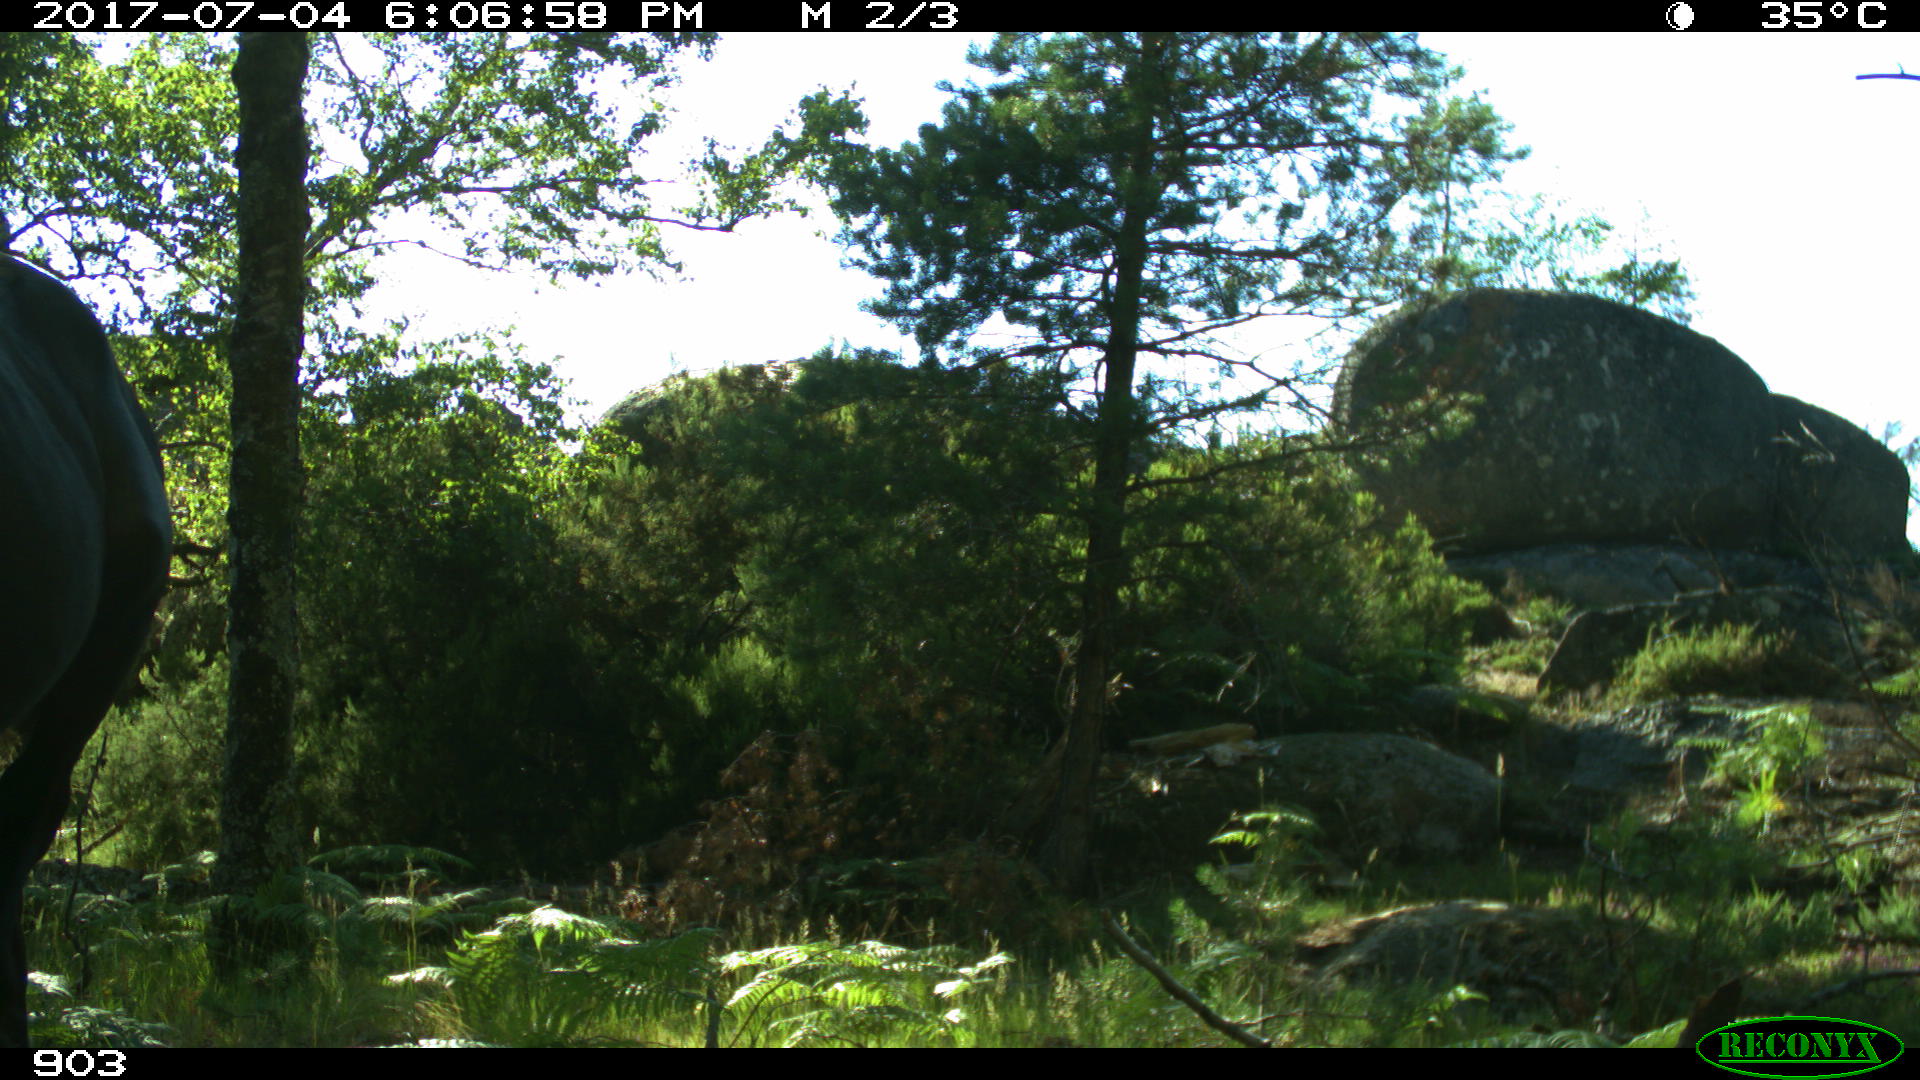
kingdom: Animalia
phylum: Chordata
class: Mammalia
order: Perissodactyla
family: Equidae
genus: Equus
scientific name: Equus caballus
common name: Horse
